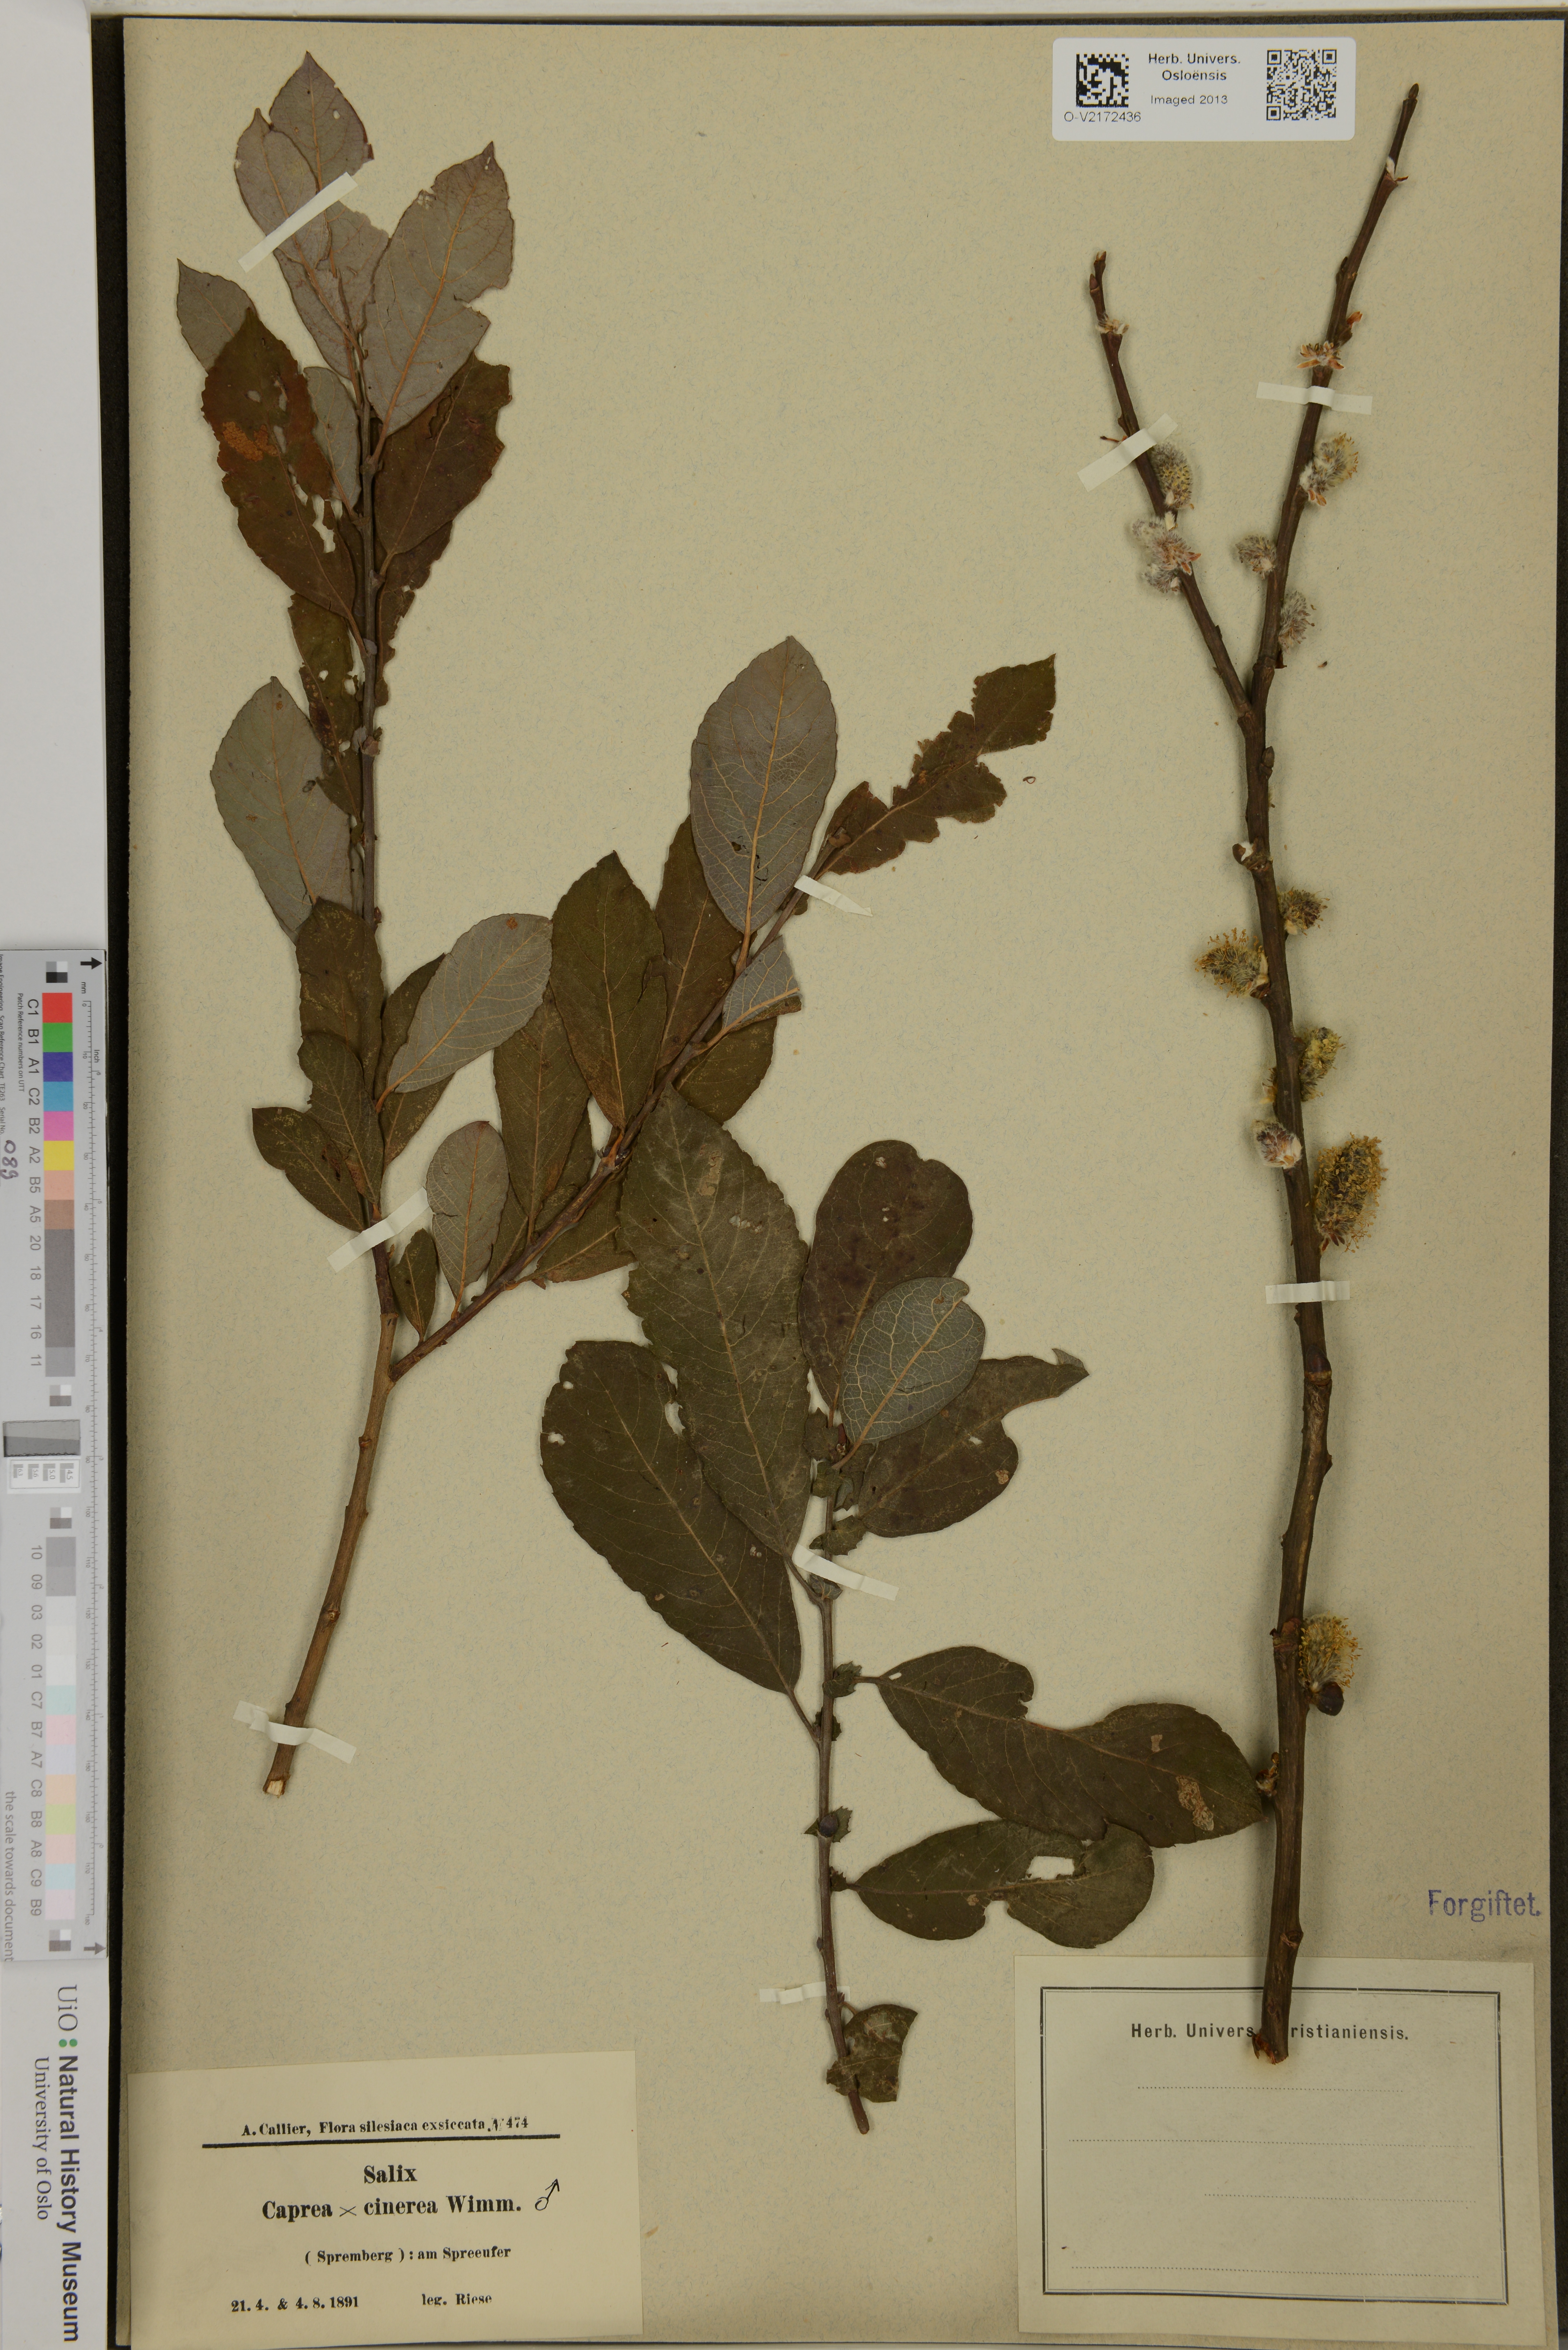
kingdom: Plantae
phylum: Tracheophyta
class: Magnoliopsida
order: Malpighiales
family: Salicaceae
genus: Salix
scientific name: Salix
